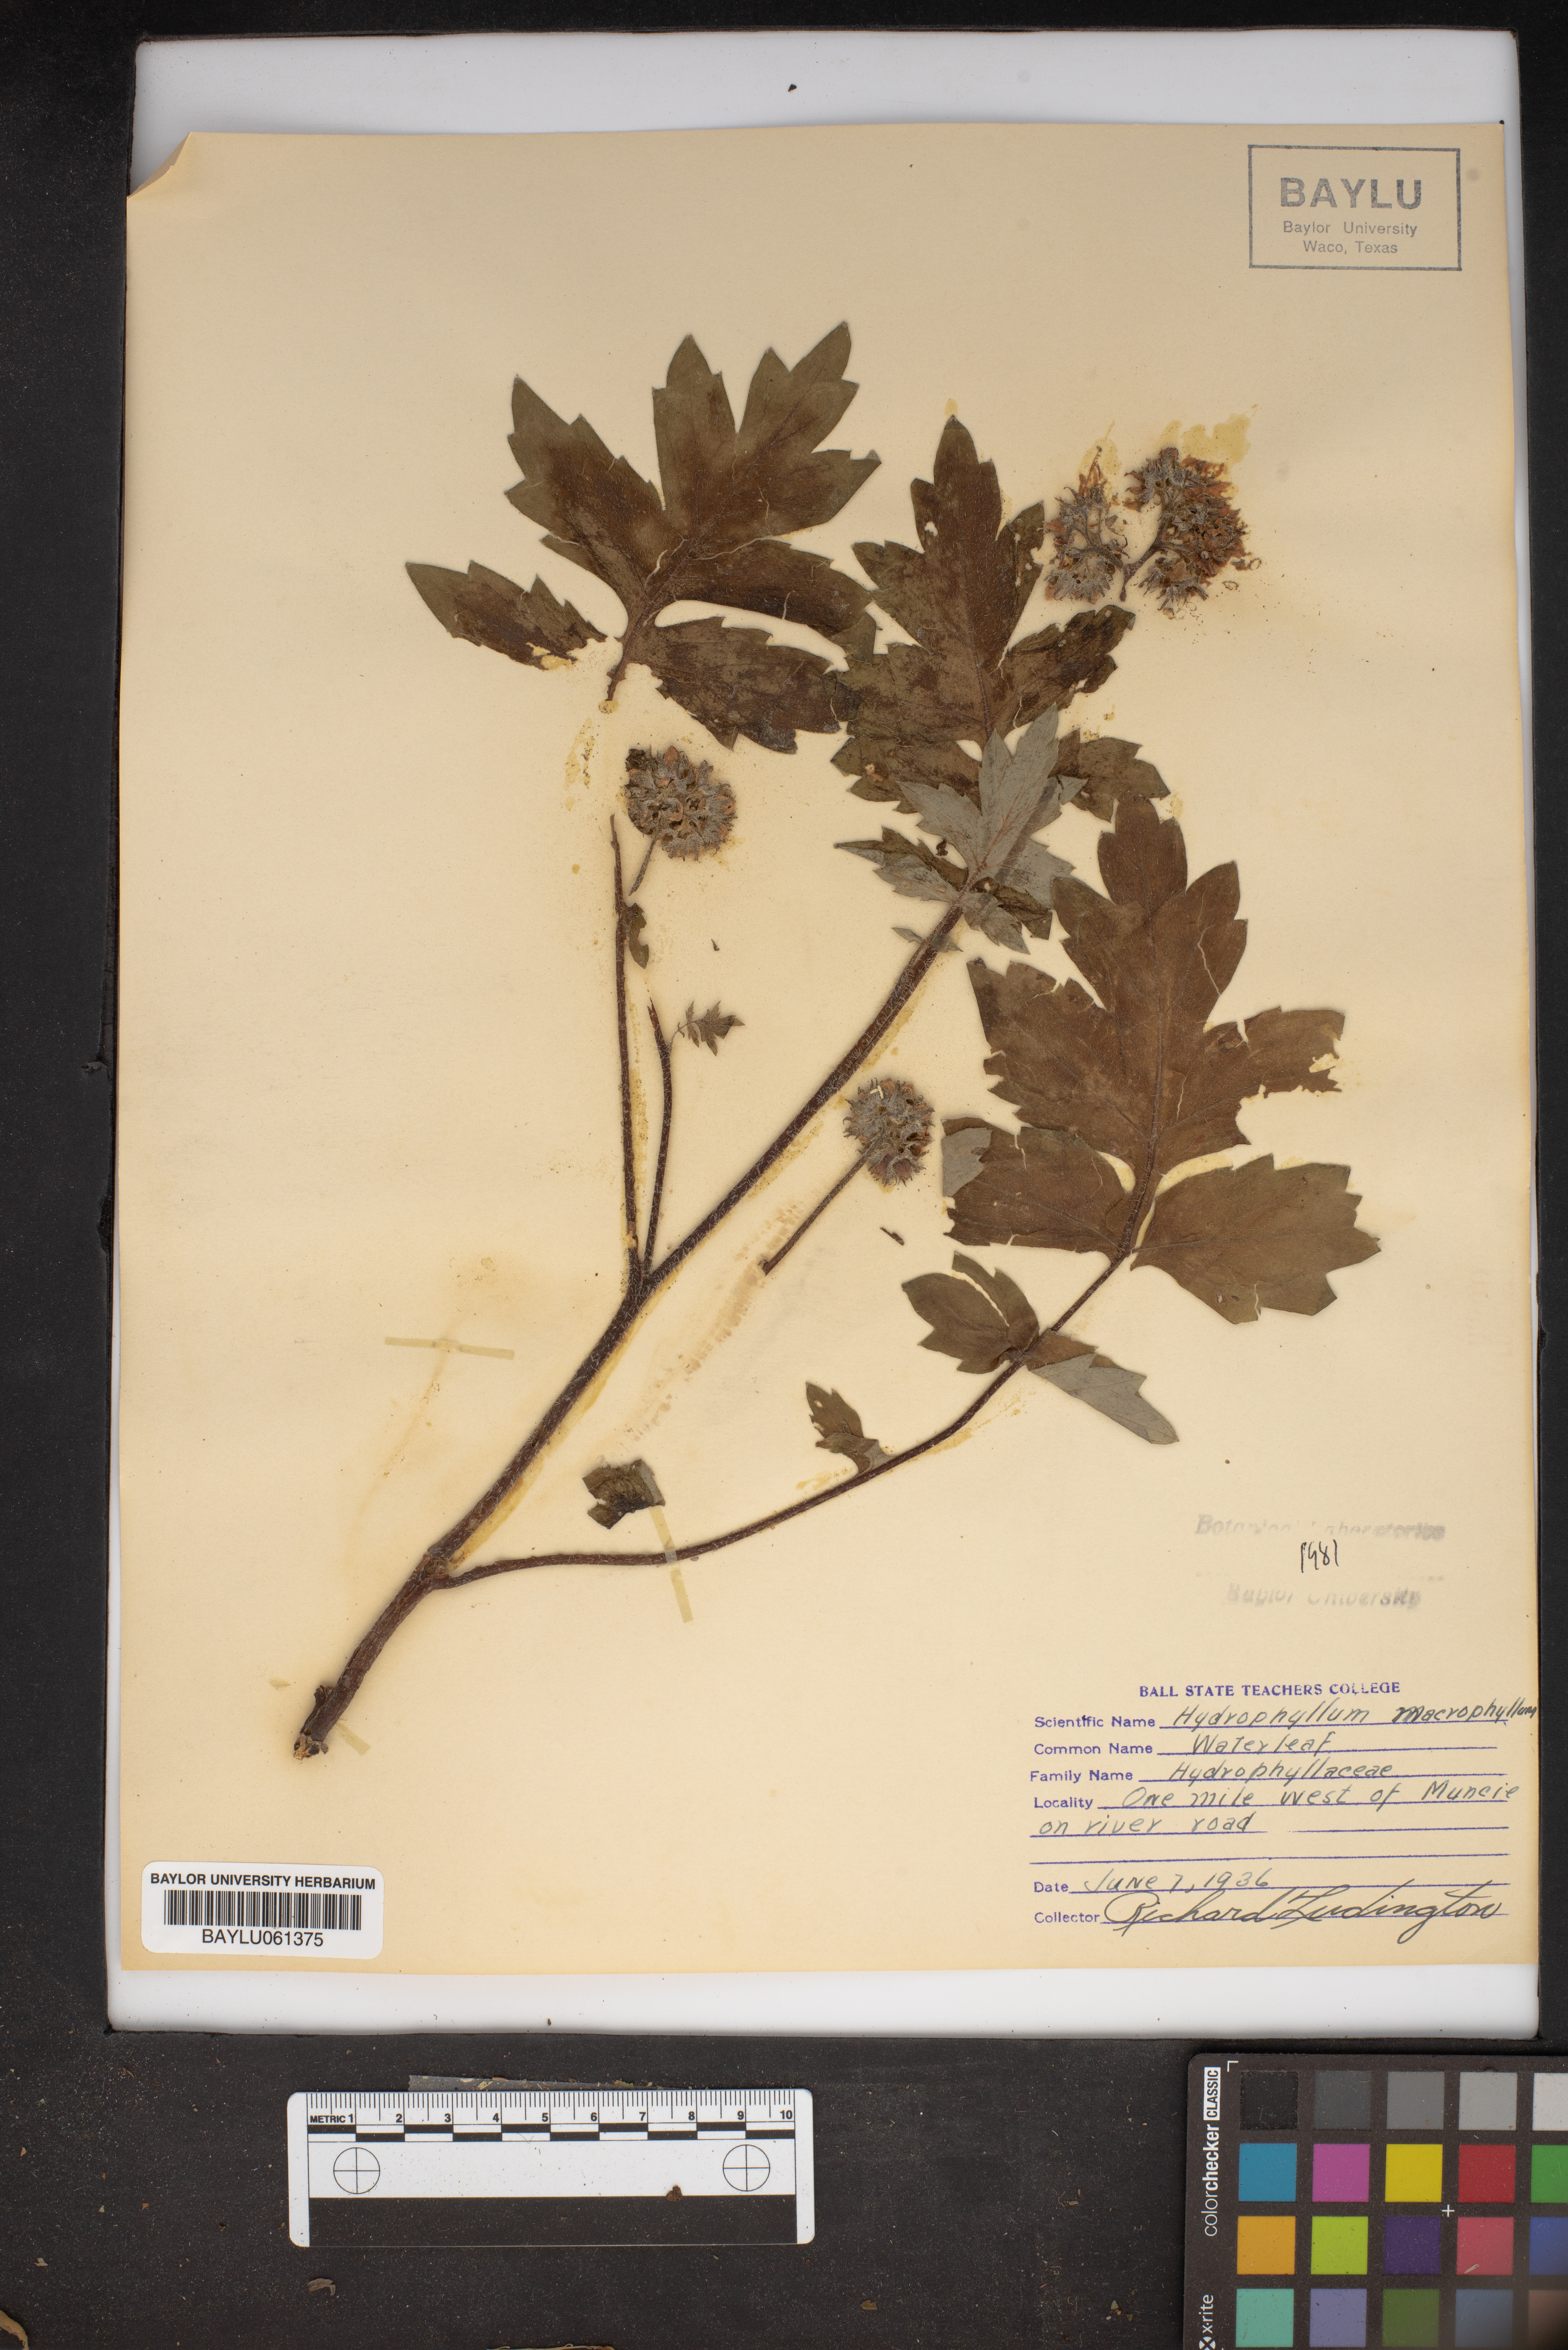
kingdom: Plantae
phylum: Tracheophyta
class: Magnoliopsida
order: Boraginales
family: Hydrophyllaceae
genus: Hydrophyllum
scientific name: Hydrophyllum macrophyllum
